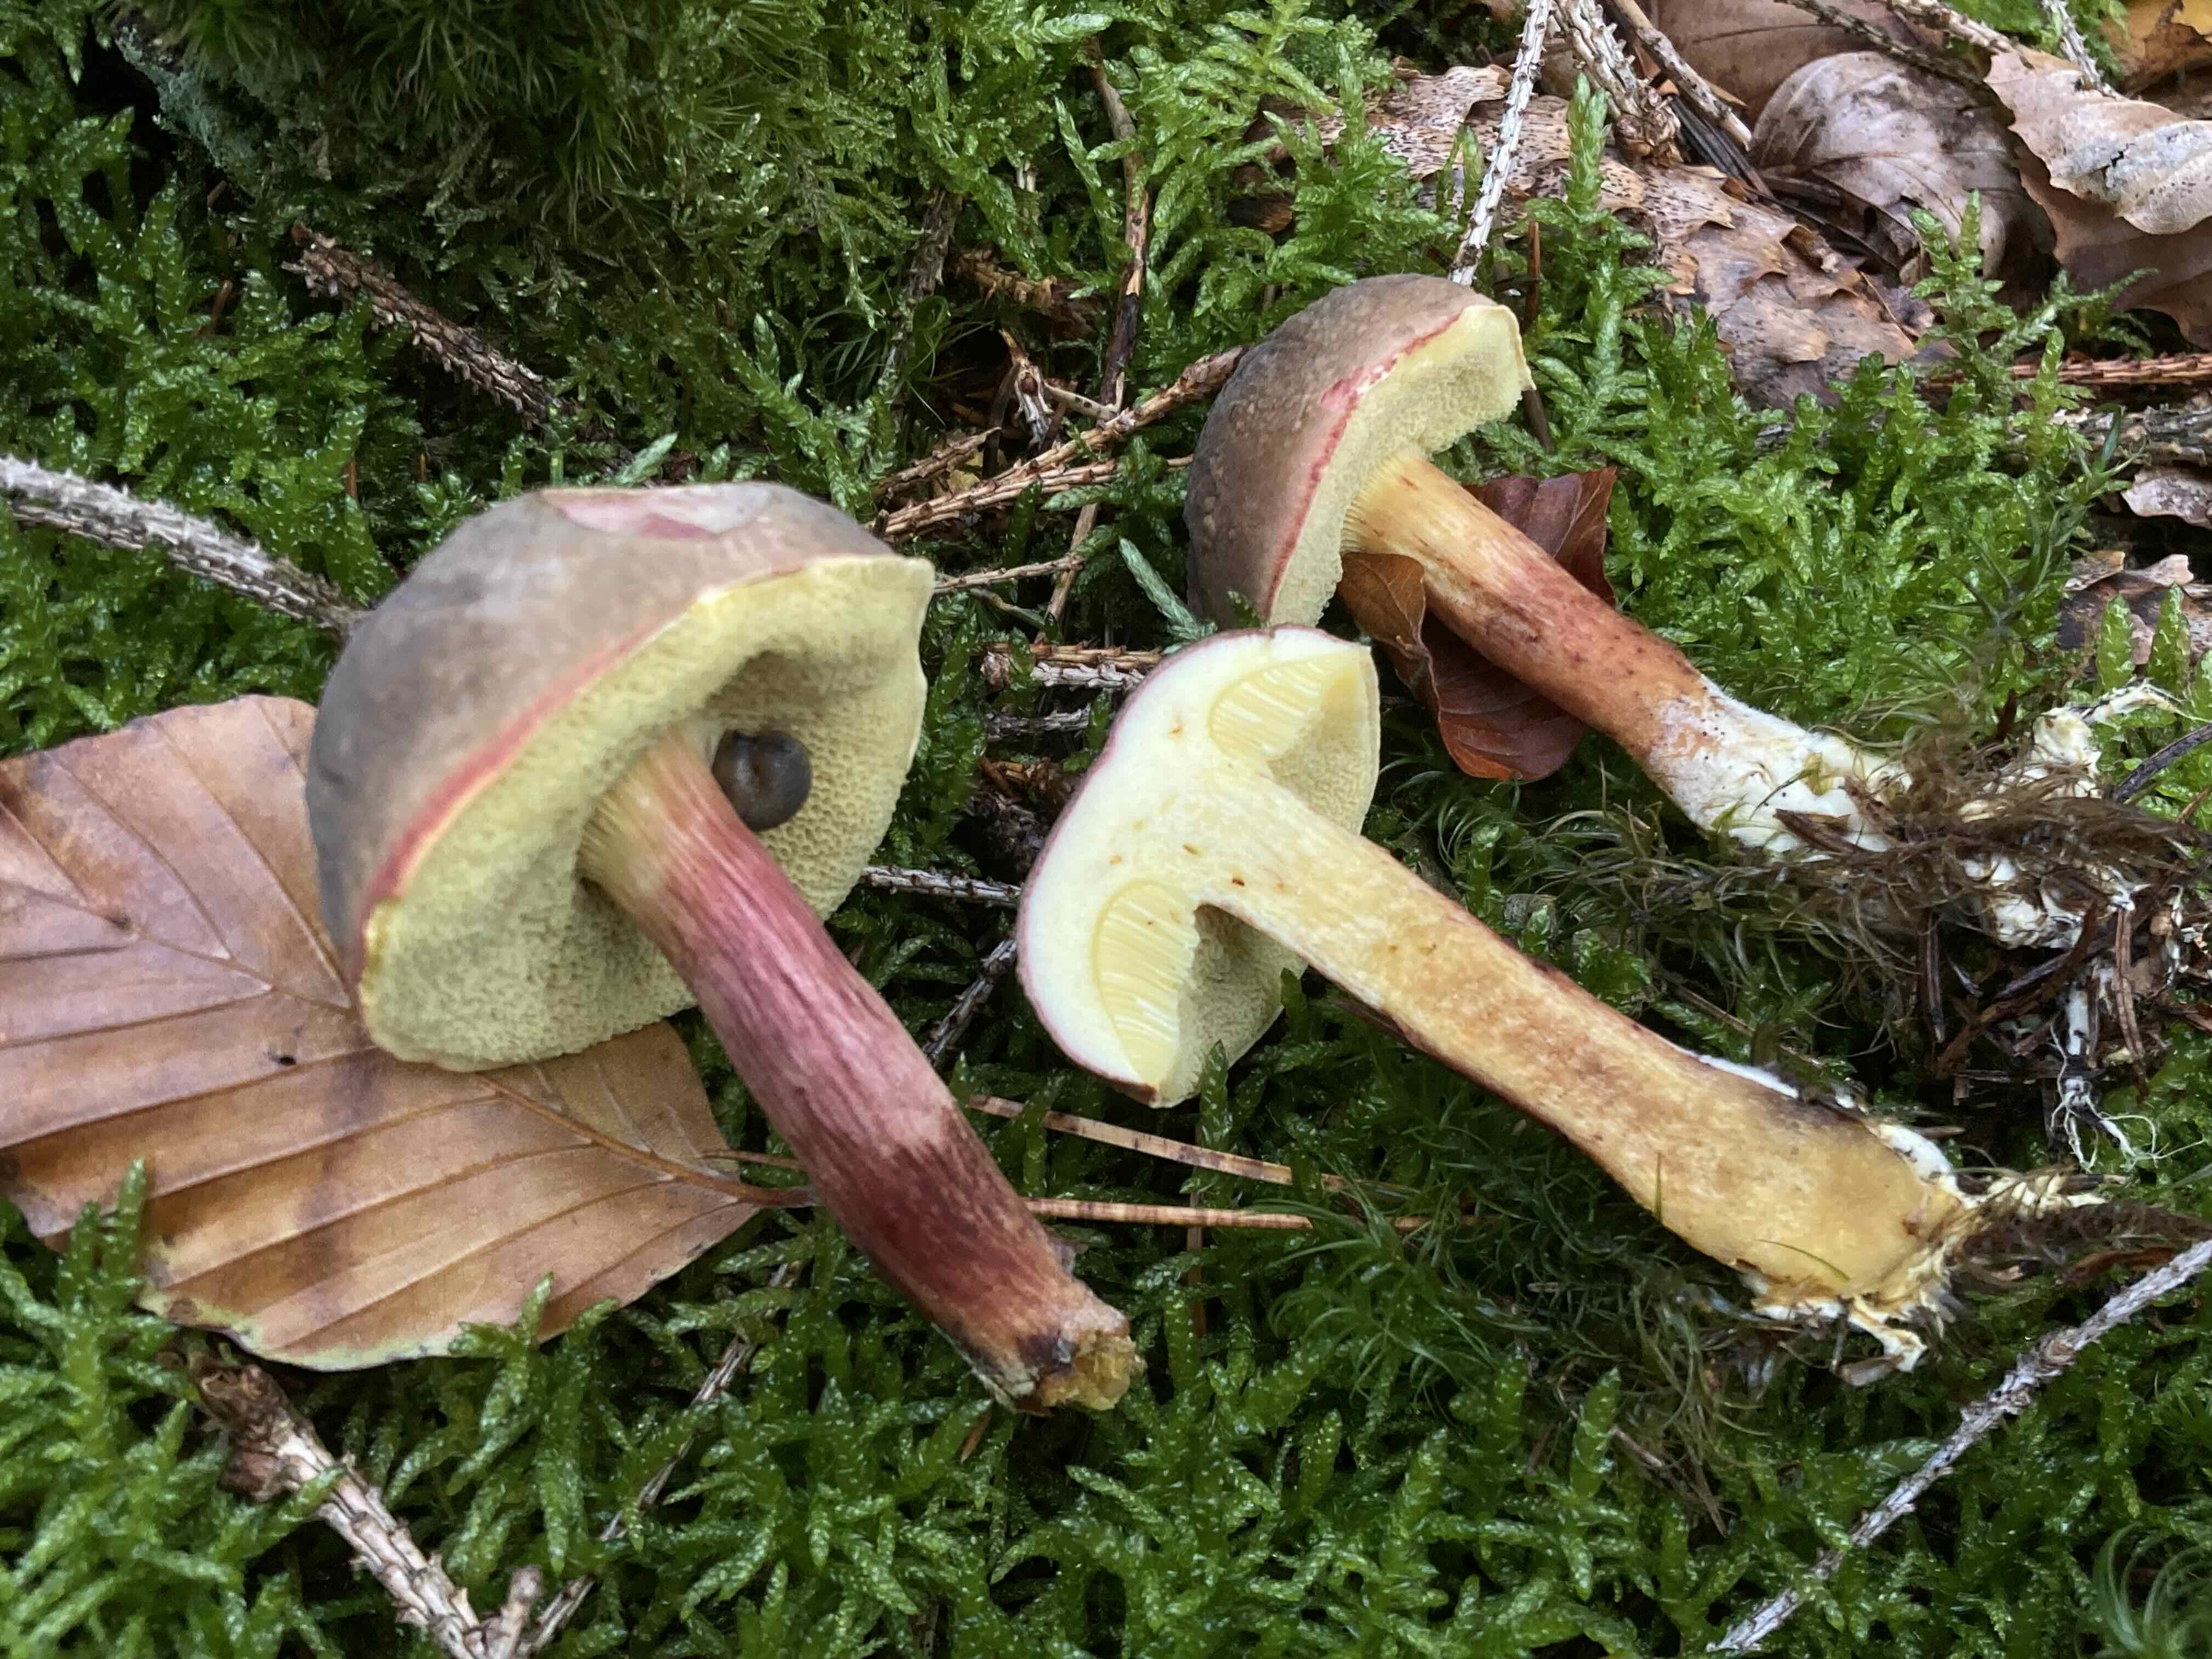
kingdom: Fungi
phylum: Basidiomycota
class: Agaricomycetes
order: Boletales
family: Boletaceae
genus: Xerocomellus
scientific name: Xerocomellus pruinatus
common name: dugget rørhat
